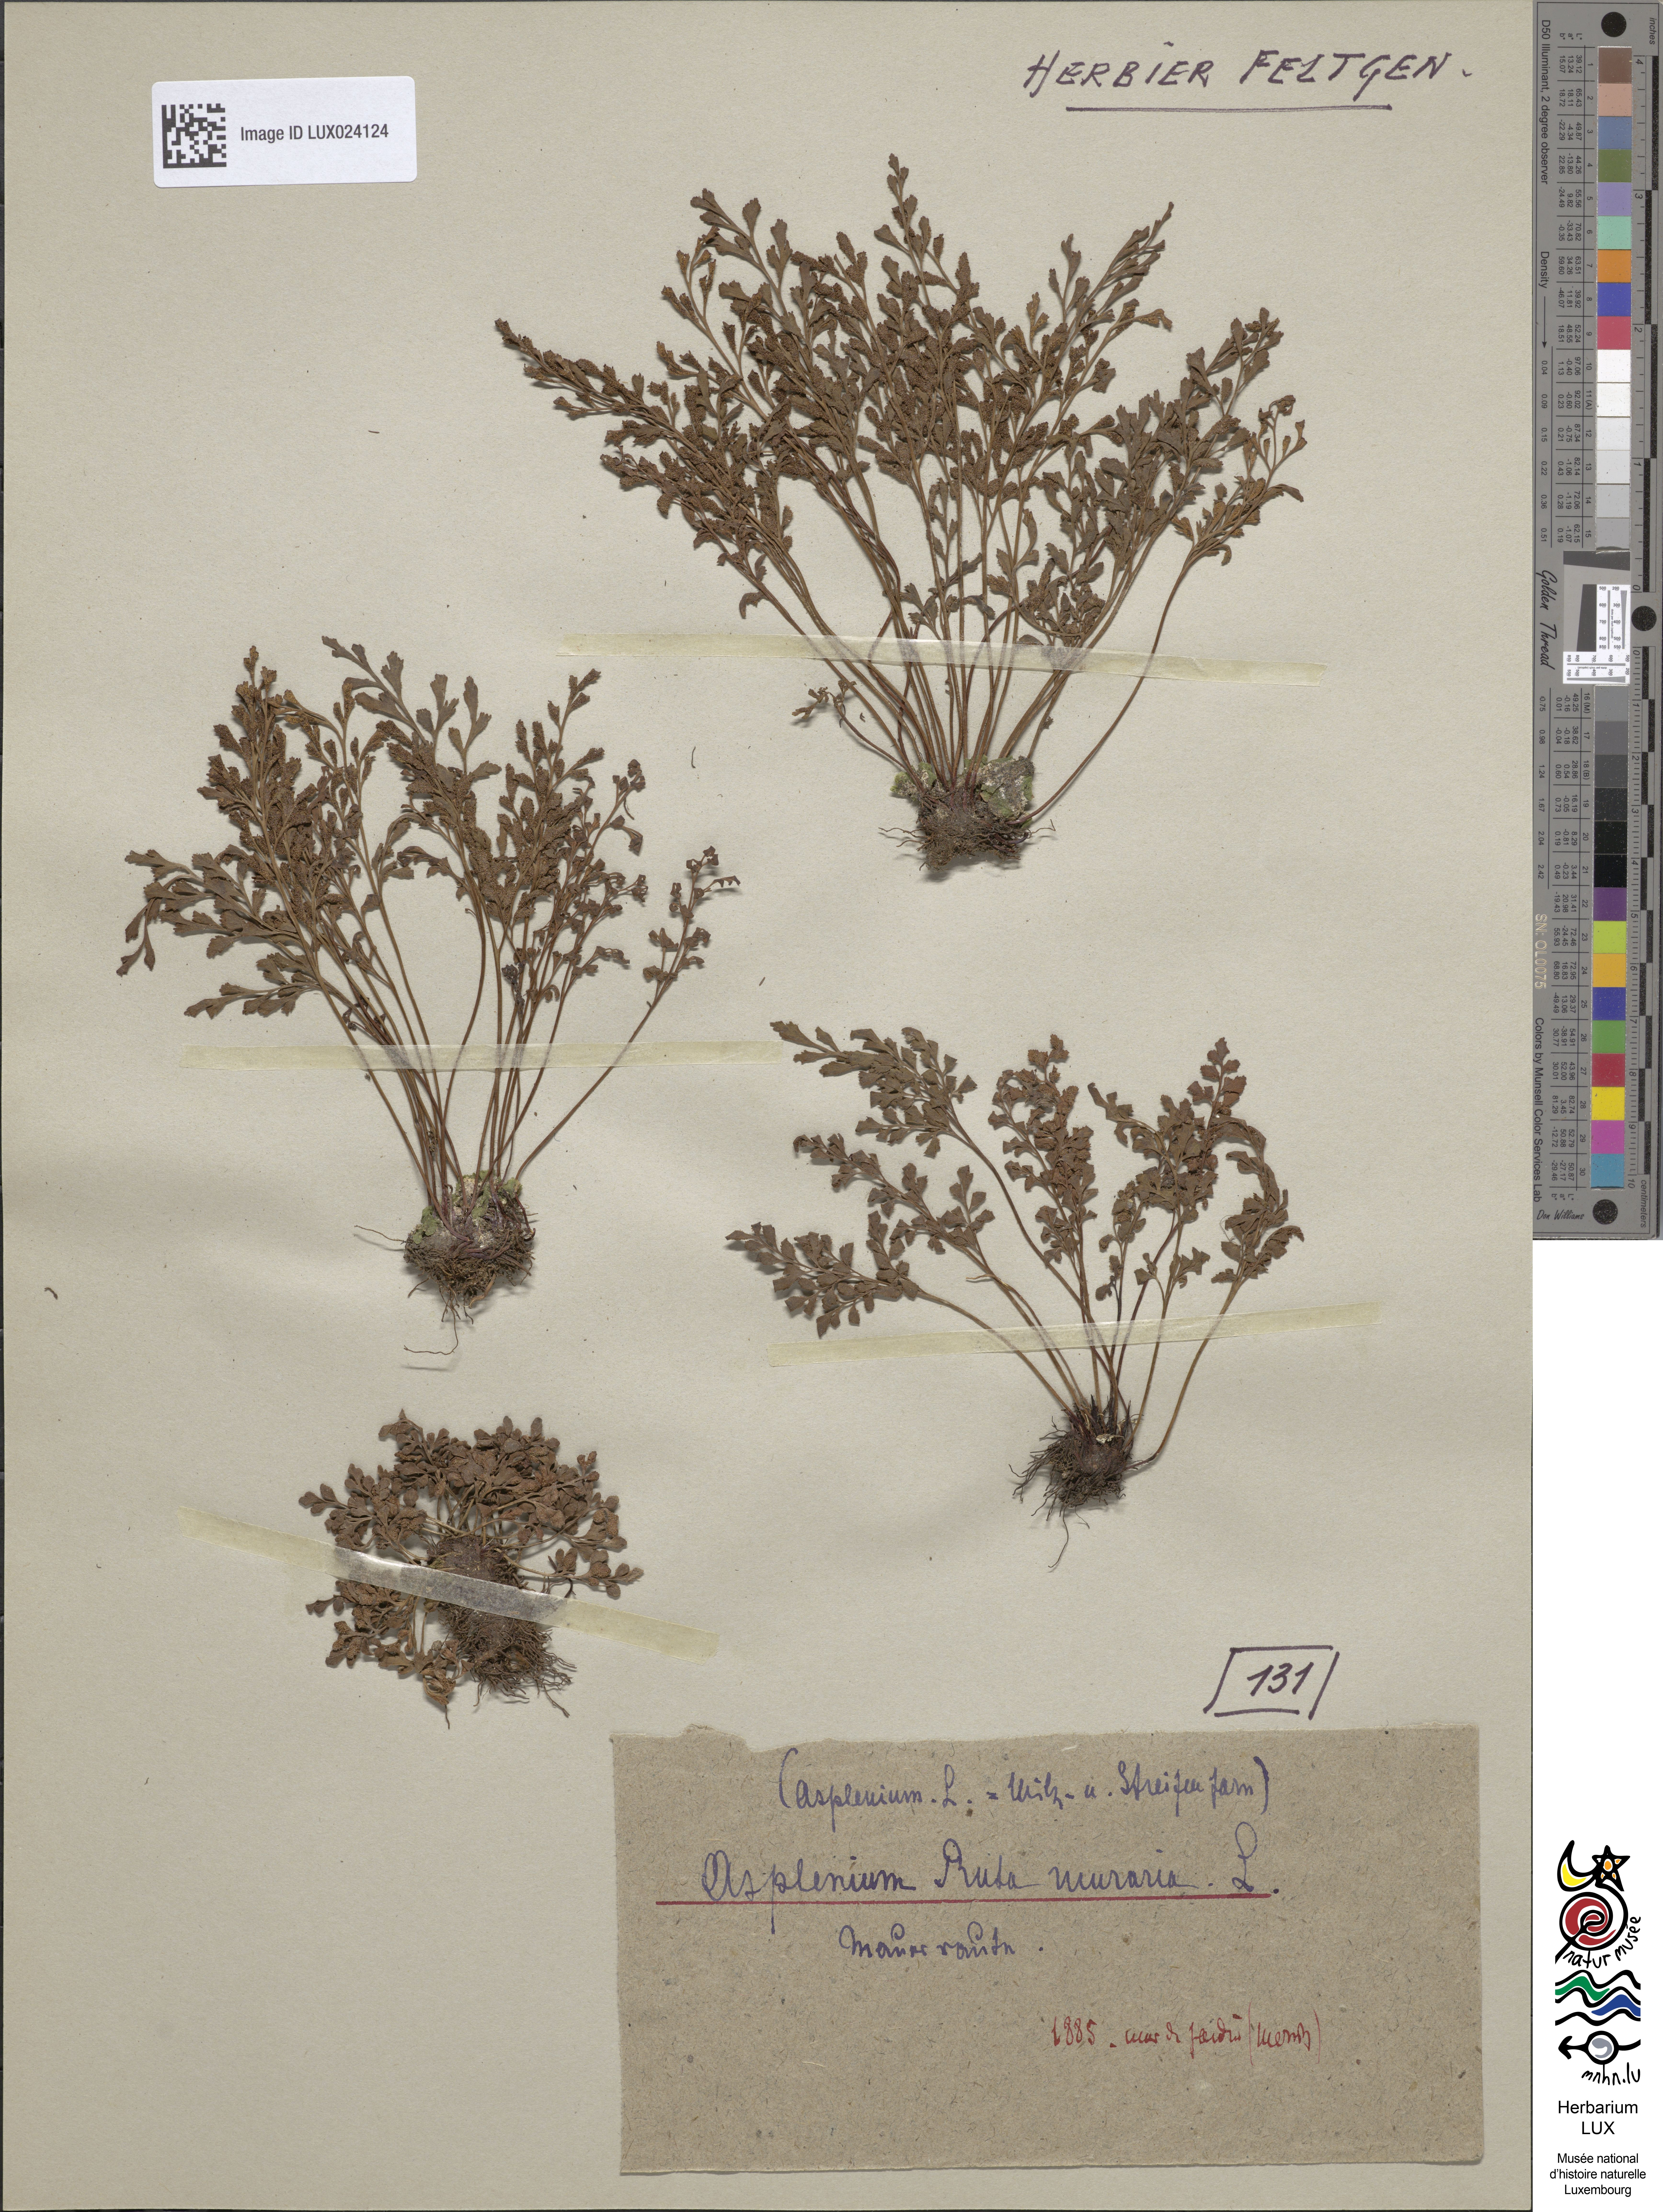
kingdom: Plantae
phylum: Tracheophyta
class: Polypodiopsida
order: Polypodiales
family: Aspleniaceae
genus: Asplenium
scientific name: Asplenium ruta-muraria
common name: Wall-rue
